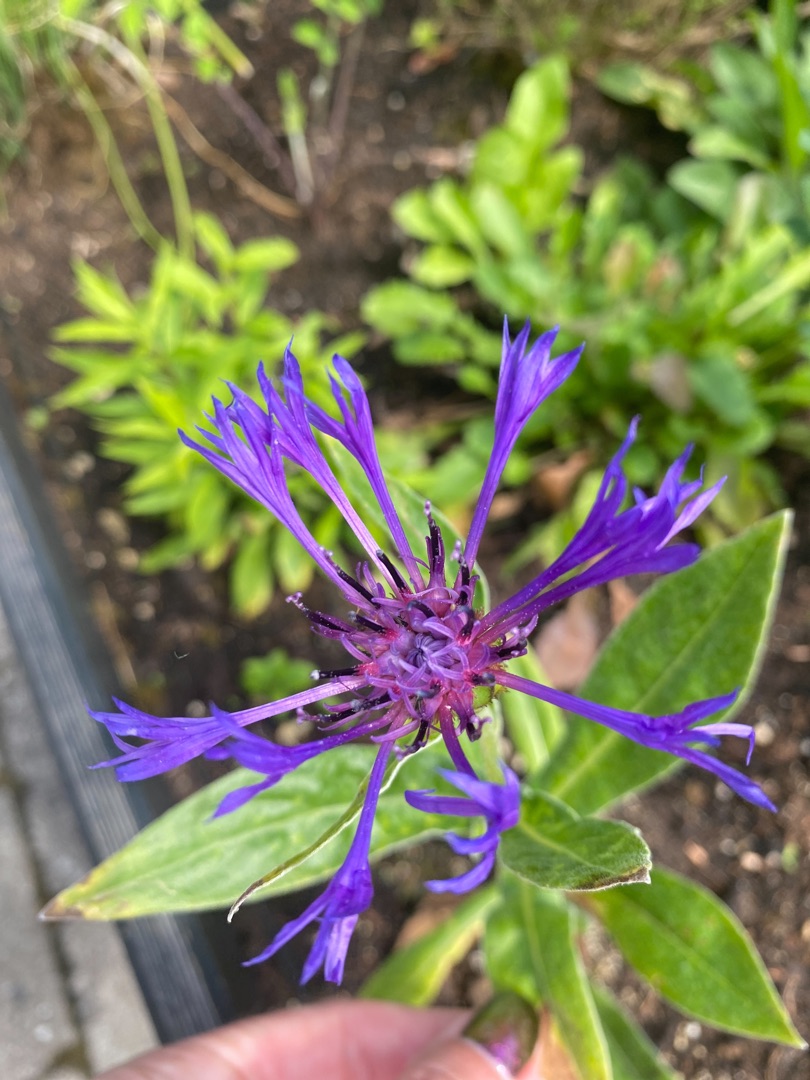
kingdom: Plantae
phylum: Tracheophyta
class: Magnoliopsida
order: Asterales
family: Asteraceae
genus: Centaurea
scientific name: Centaurea montana
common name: Bjerg-knopurt
